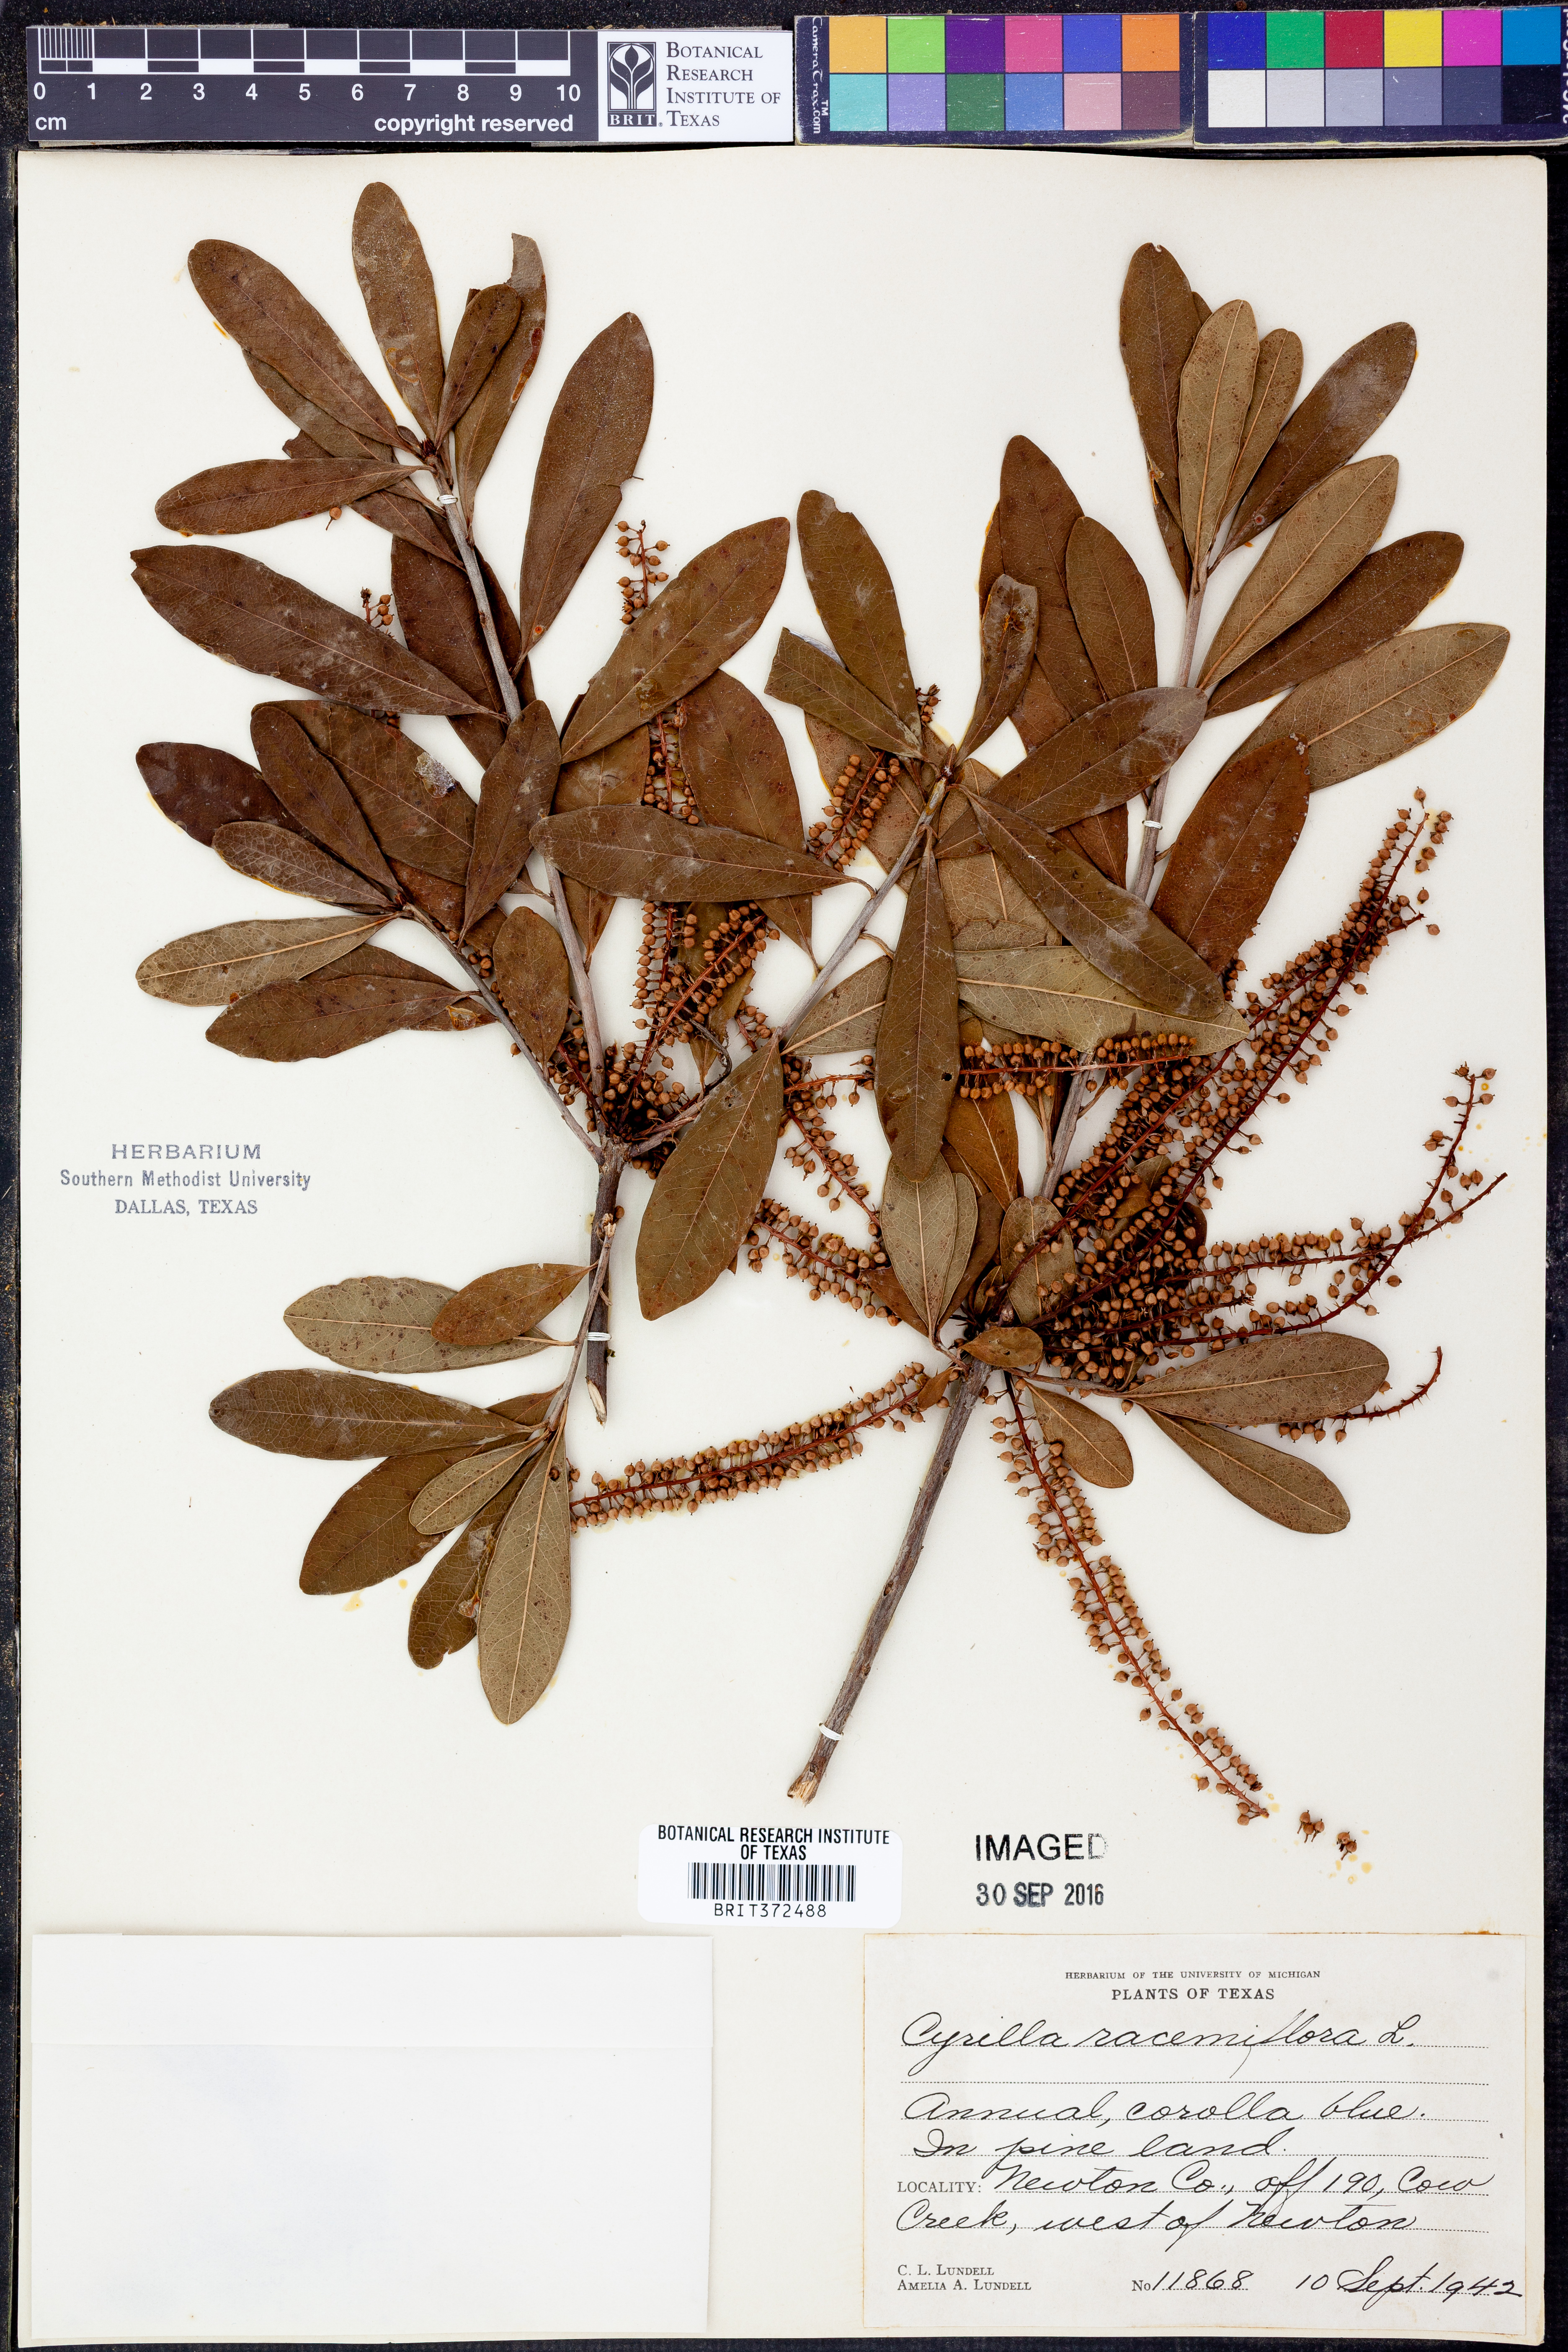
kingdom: Plantae
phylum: Tracheophyta
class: Magnoliopsida
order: Ericales
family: Cyrillaceae
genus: Cyrilla
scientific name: Cyrilla racemiflora
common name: Black titi
